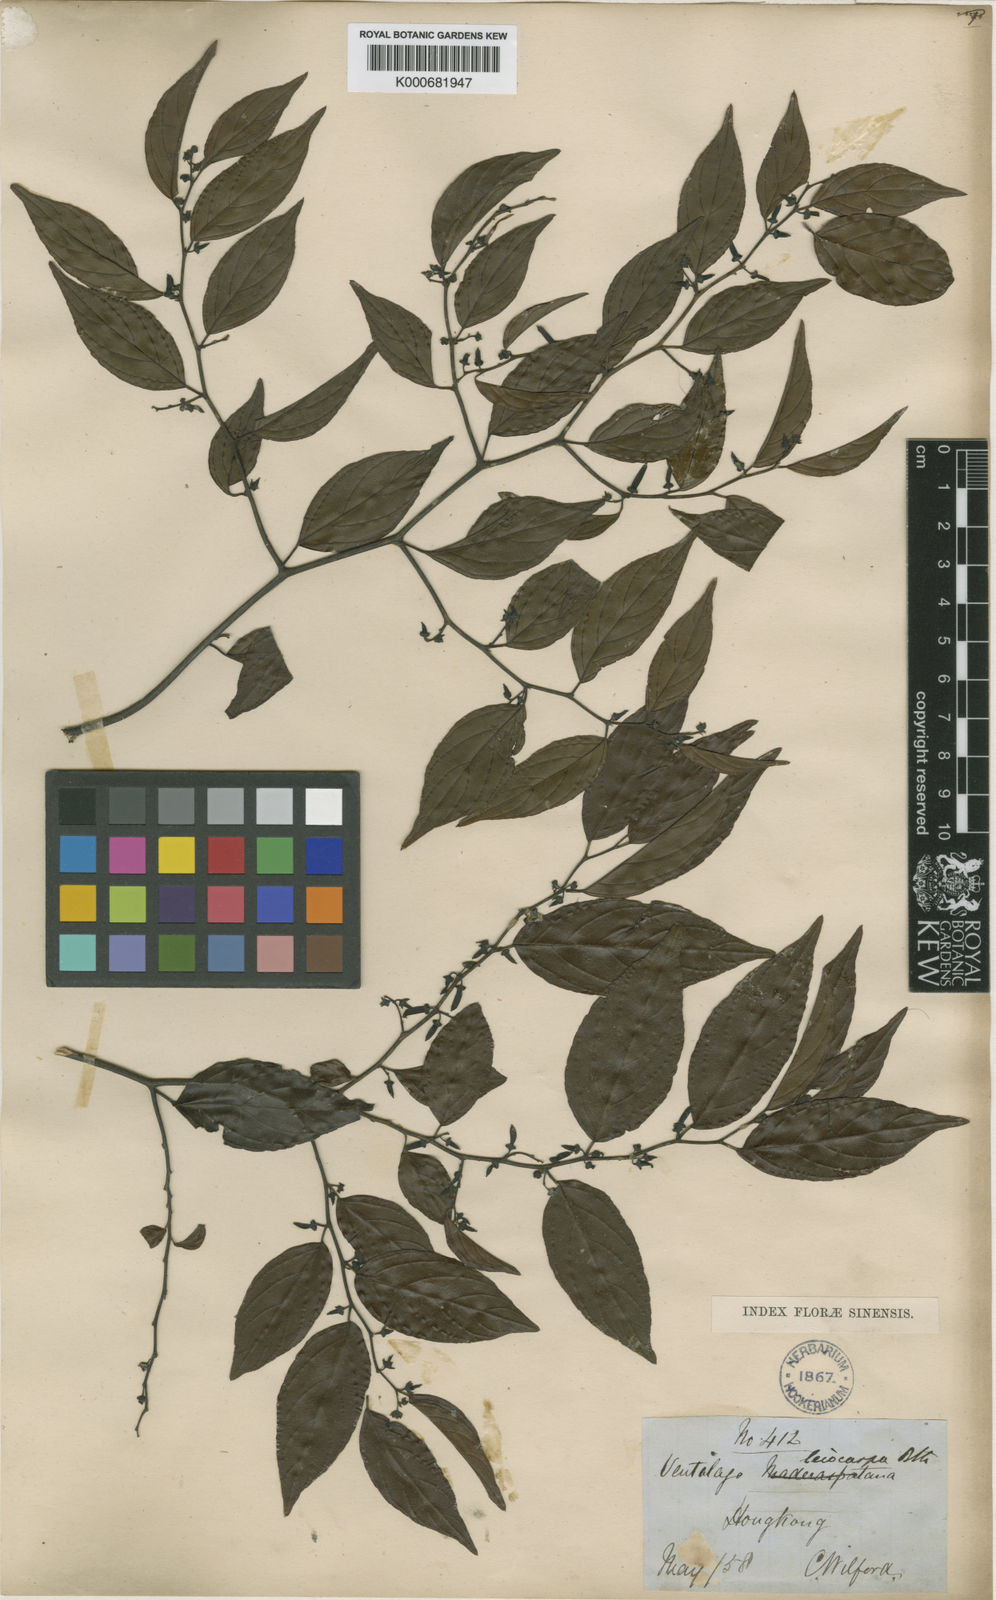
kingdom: Plantae
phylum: Tracheophyta
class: Magnoliopsida
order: Rosales
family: Rhamnaceae
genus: Ventilago
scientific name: Ventilago leiocarpa
